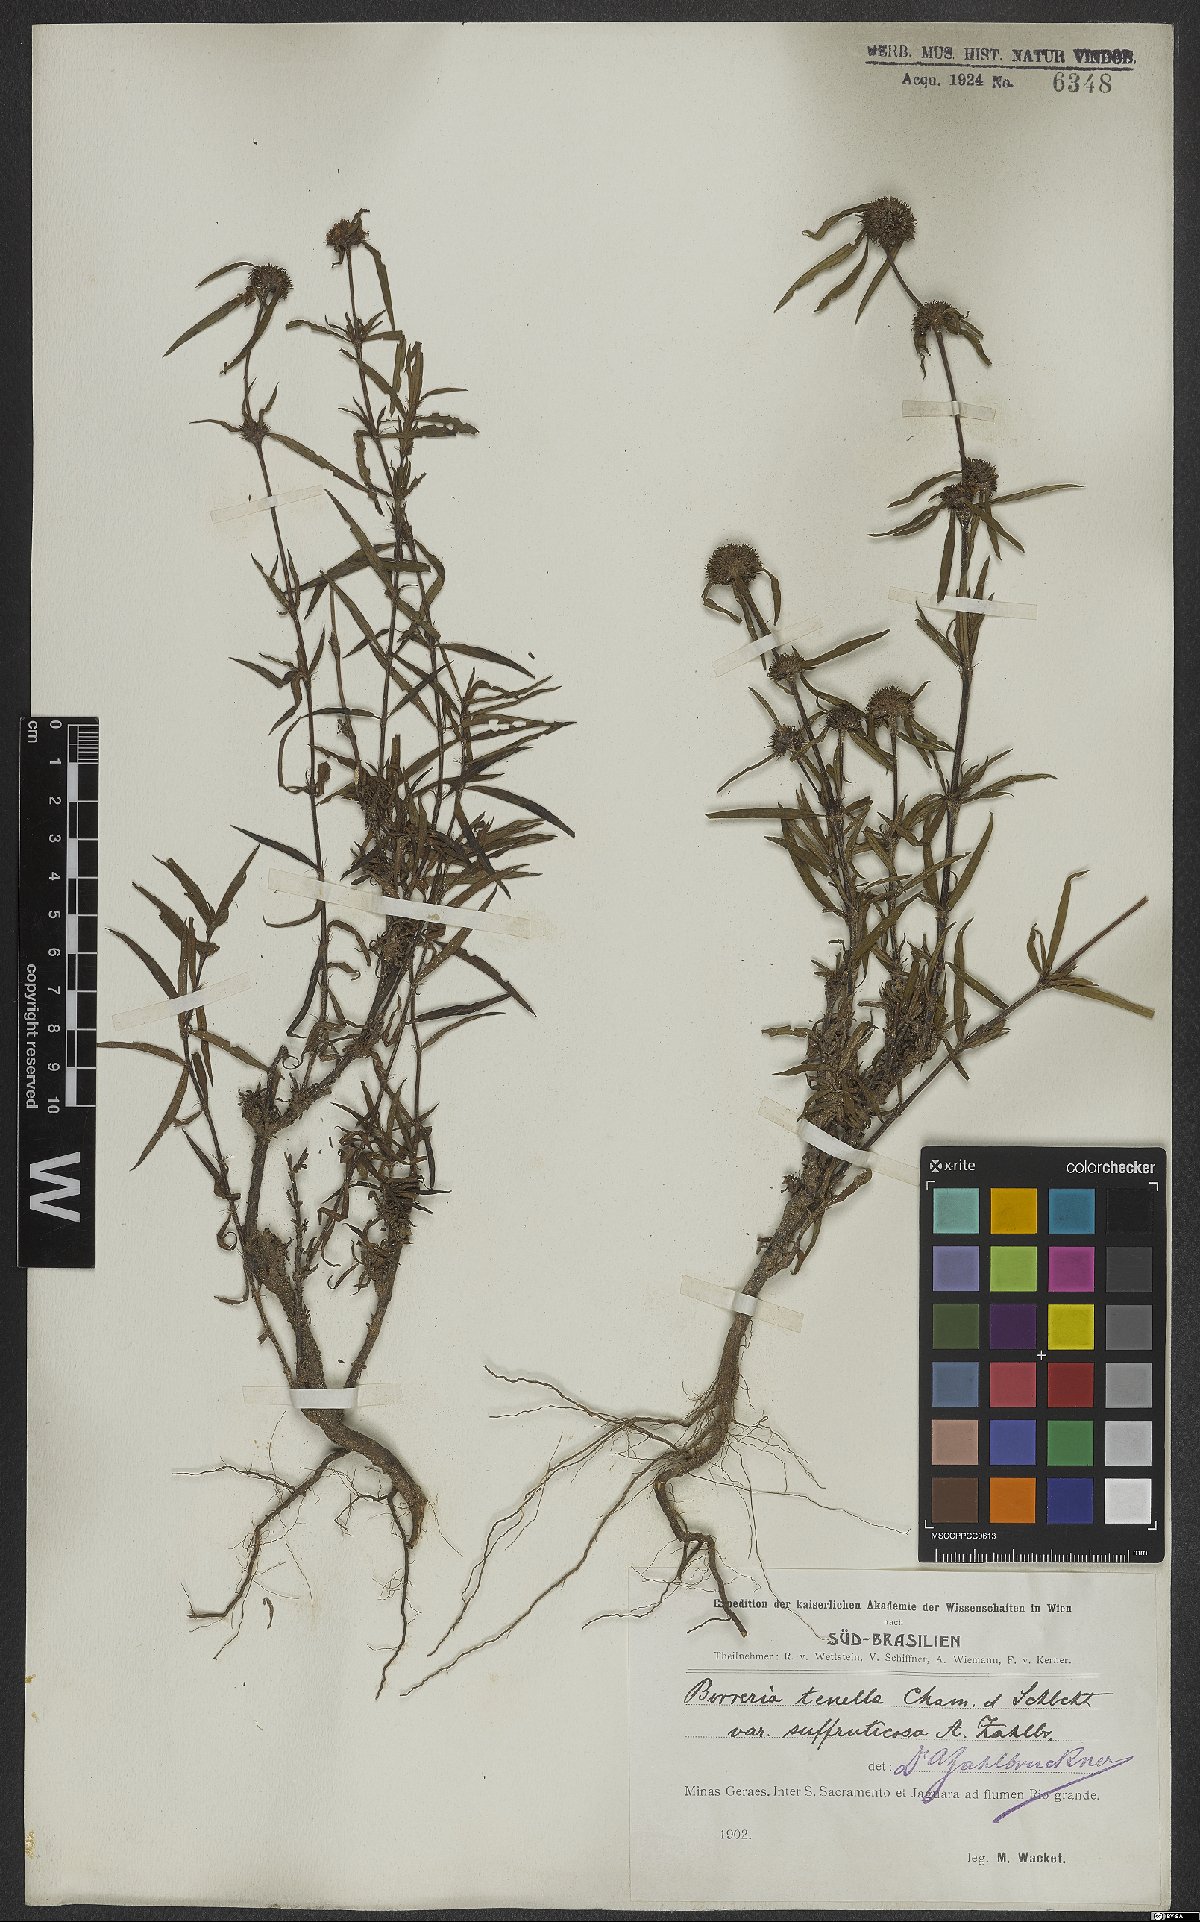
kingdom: Plantae
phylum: Tracheophyta
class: Magnoliopsida
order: Gentianales
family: Rubiaceae
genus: Spermacoce
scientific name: Spermacoce orinocensis
